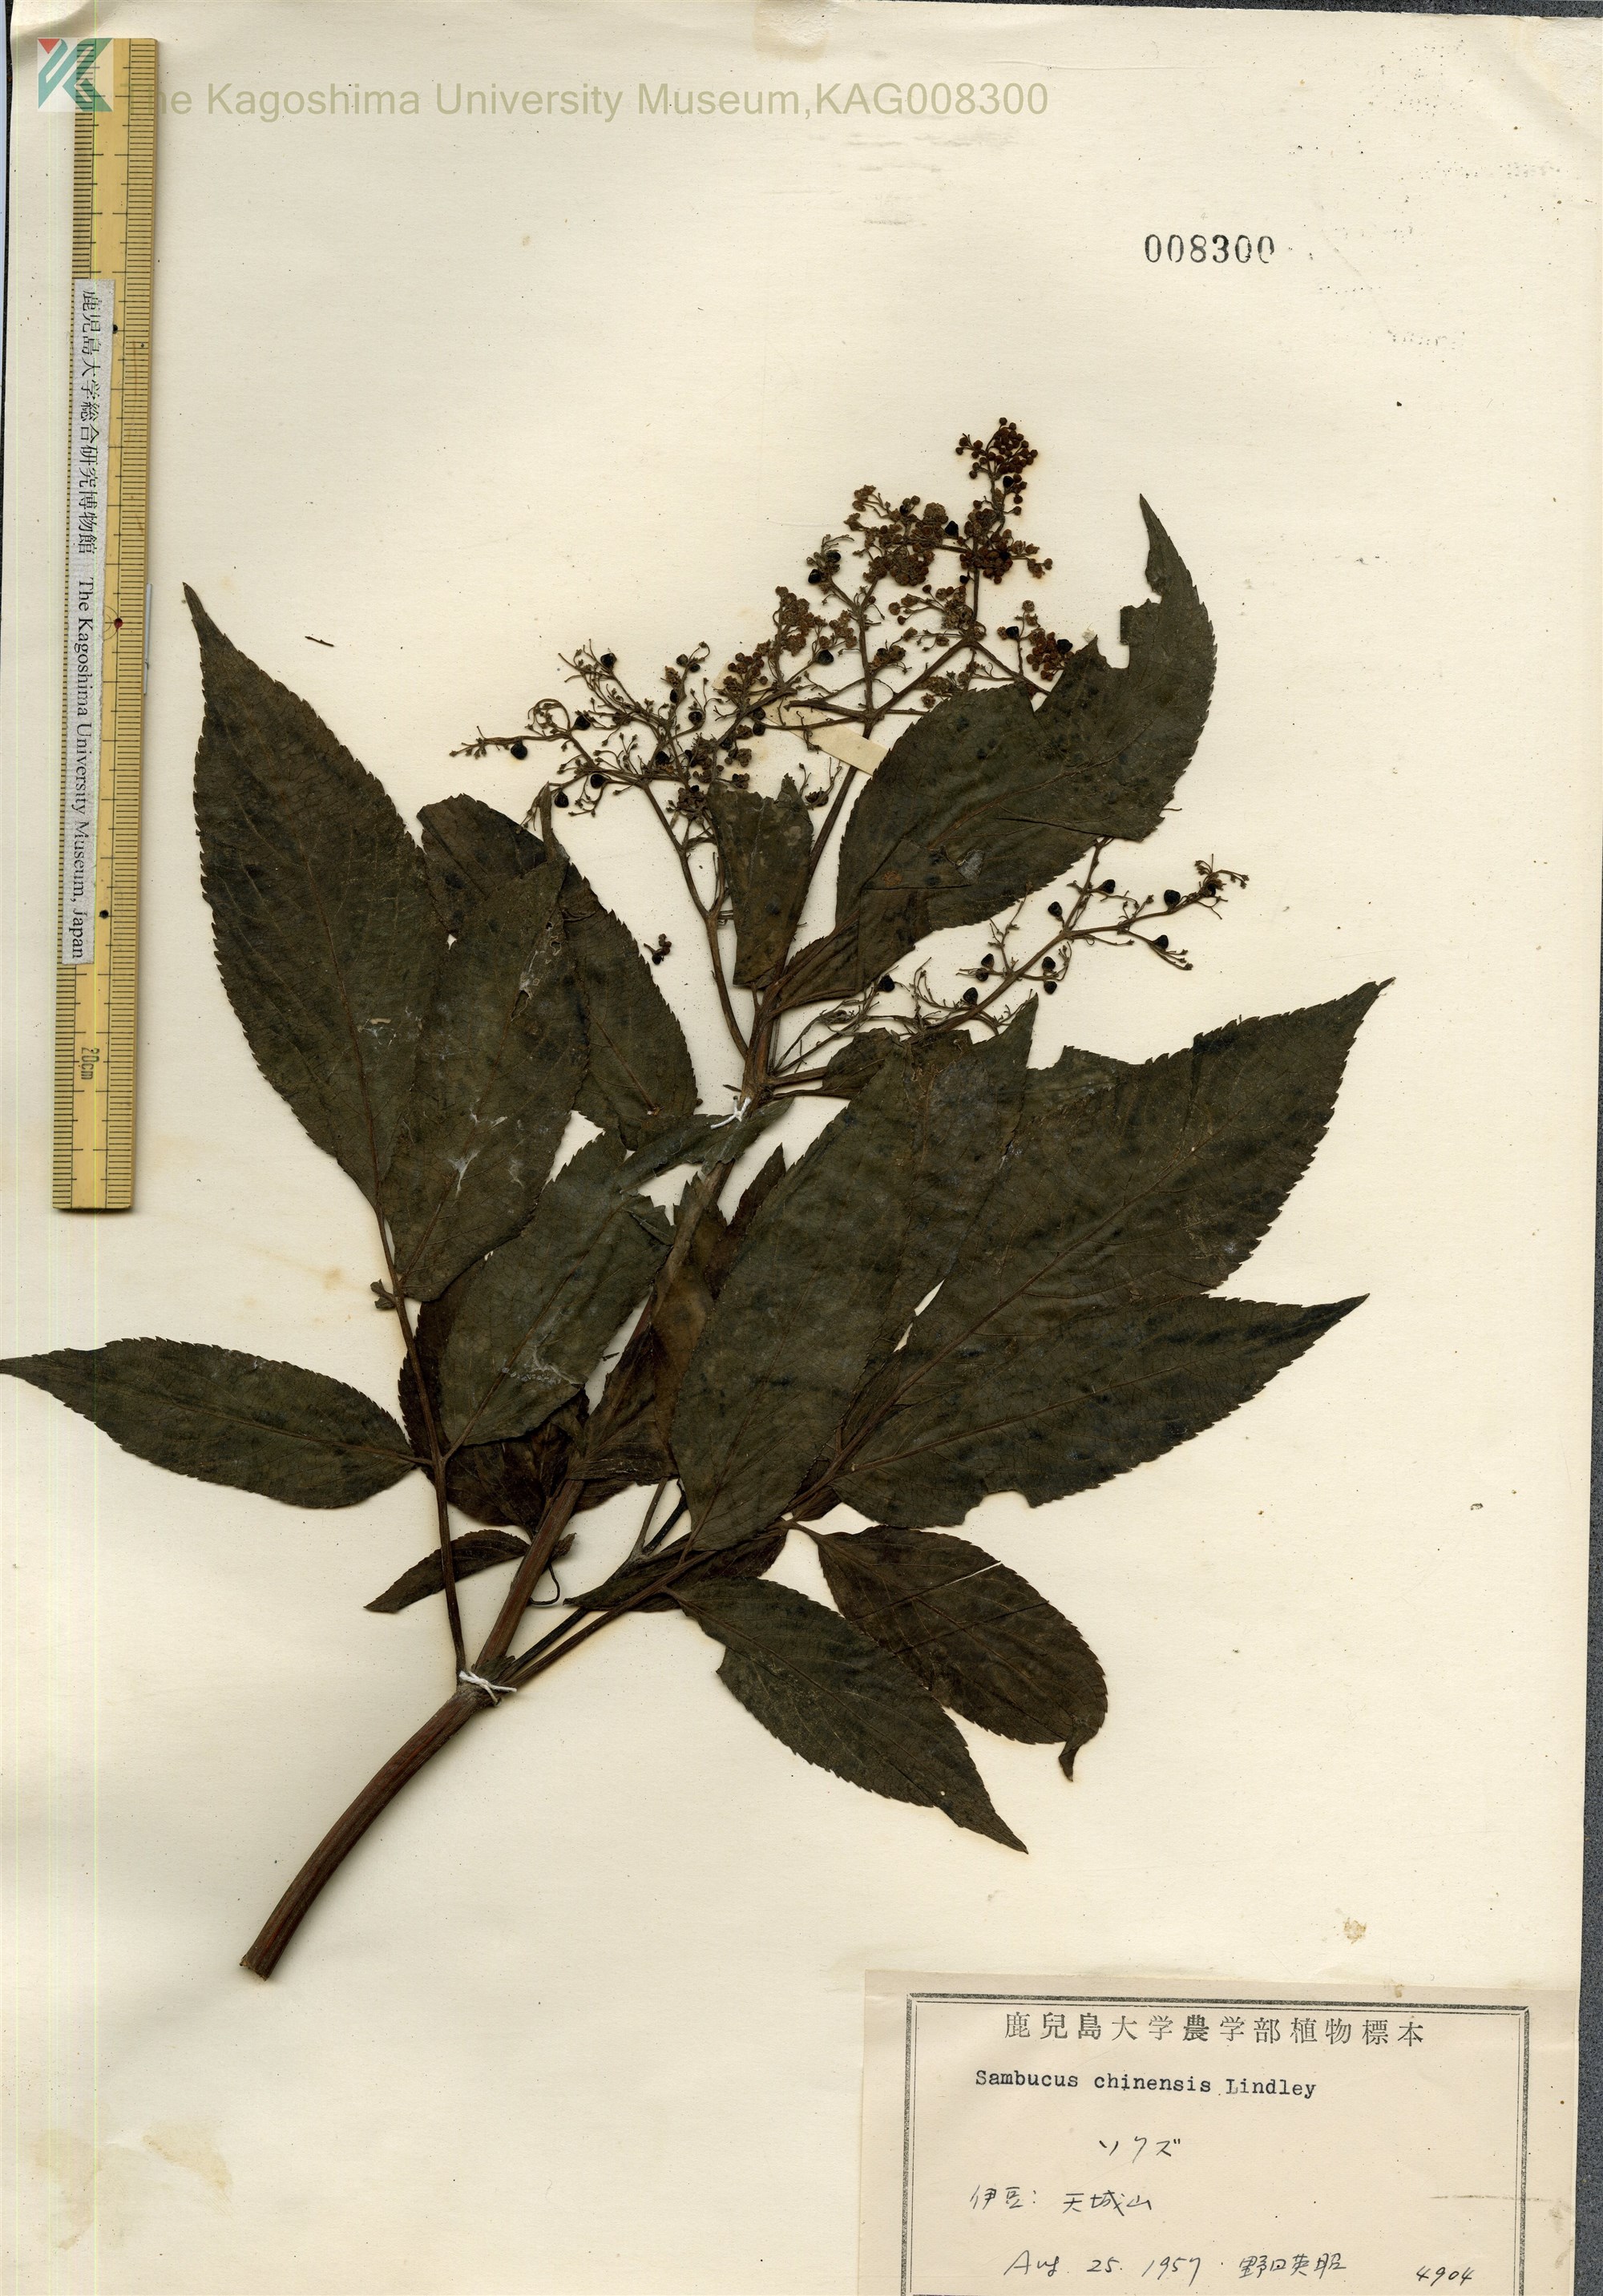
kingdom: Plantae
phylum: Tracheophyta
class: Magnoliopsida
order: Dipsacales
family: Viburnaceae
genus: Sambucus
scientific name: Sambucus javanica
